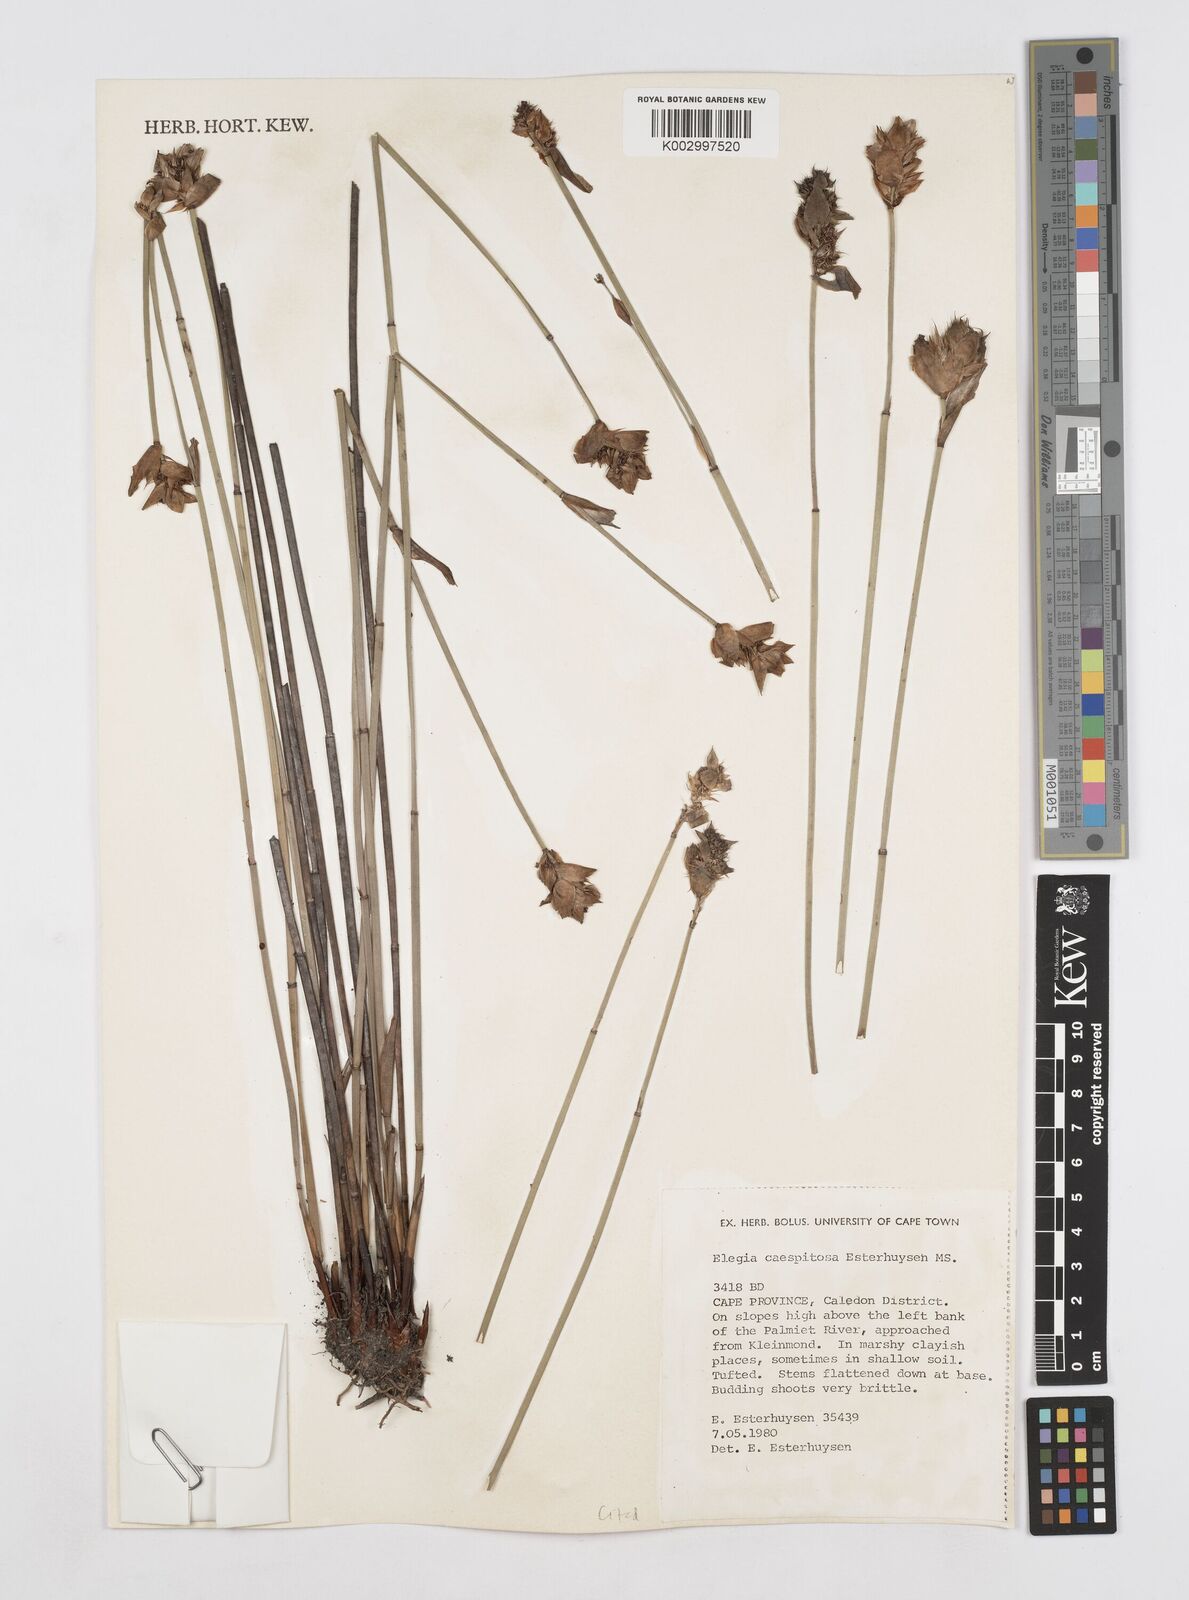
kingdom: Plantae
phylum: Tracheophyta
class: Liliopsida
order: Poales
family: Restionaceae
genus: Elegia
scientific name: Elegia caespitosa
